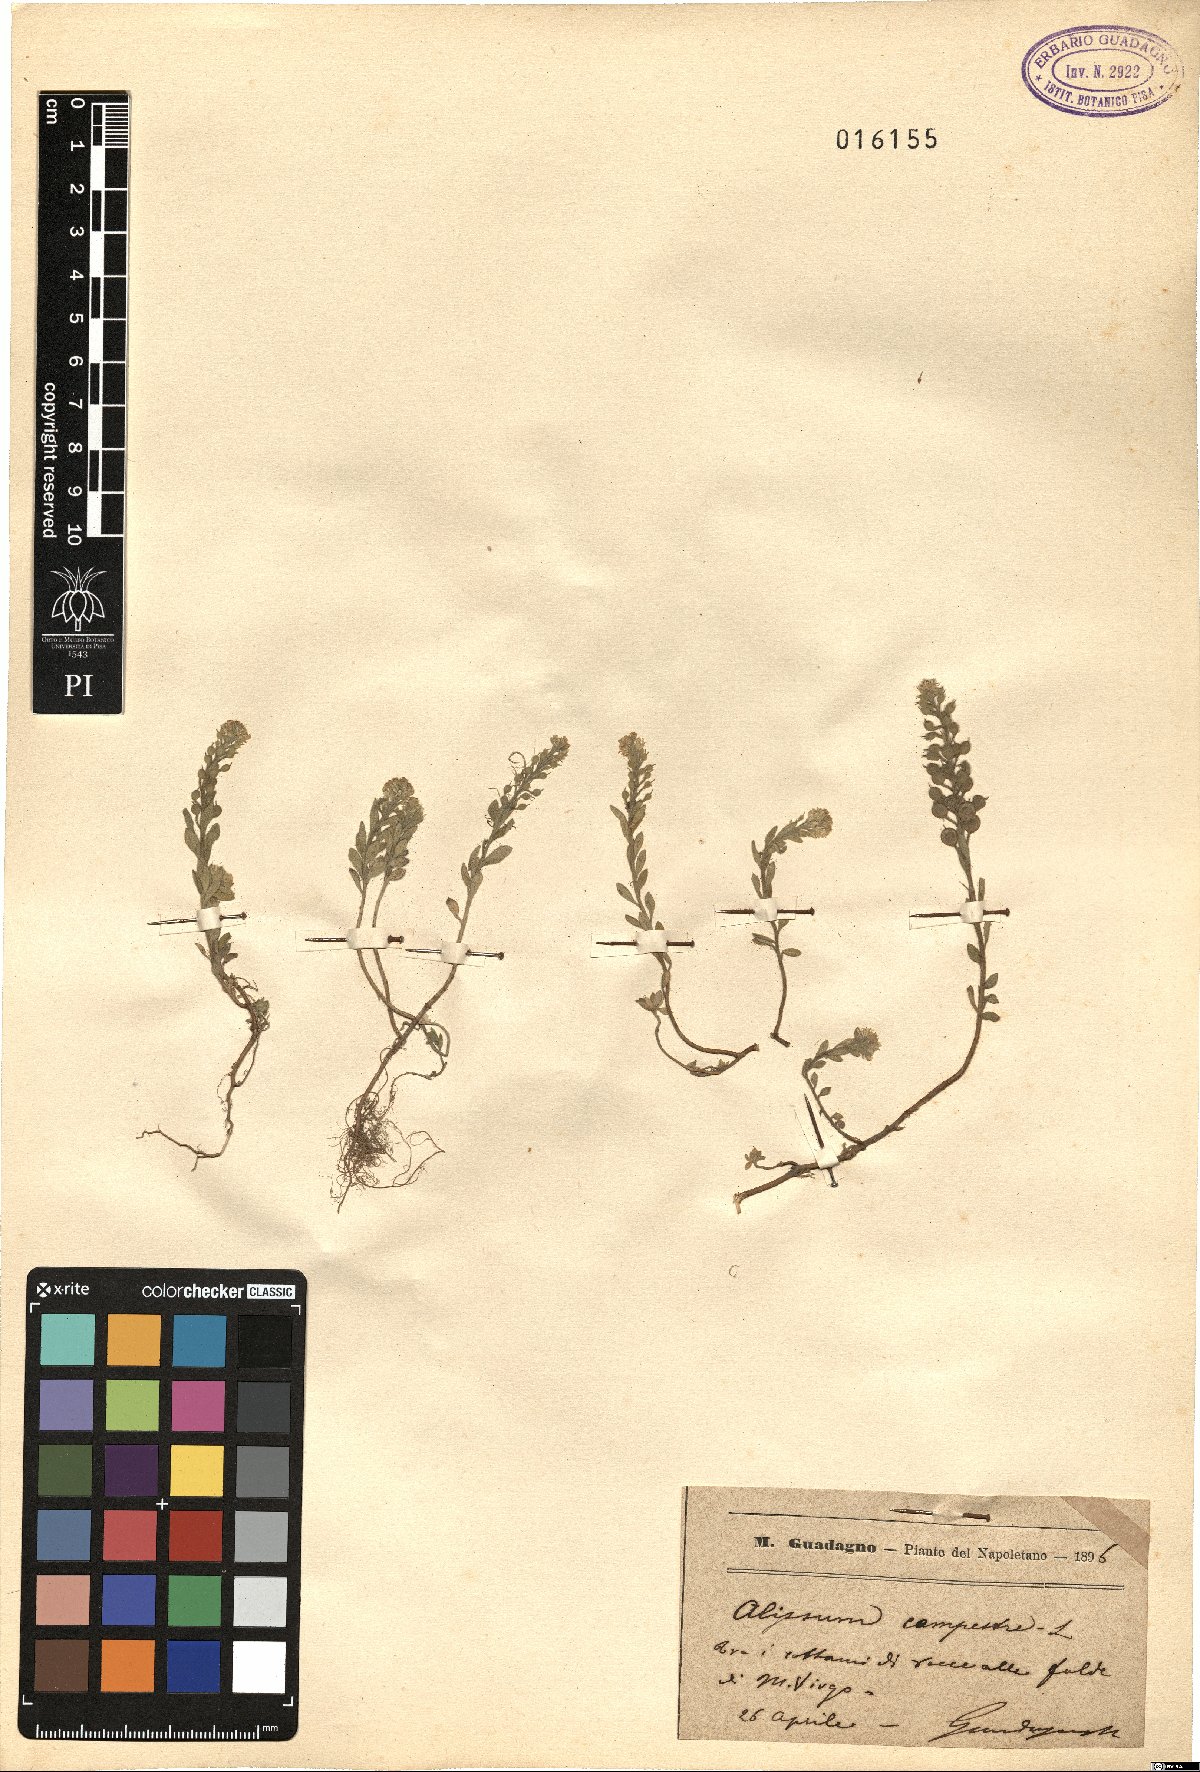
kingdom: Plantae
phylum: Tracheophyta
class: Magnoliopsida
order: Brassicales
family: Brassicaceae
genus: Alyssum
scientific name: Alyssum alyssoides
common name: Small alison
